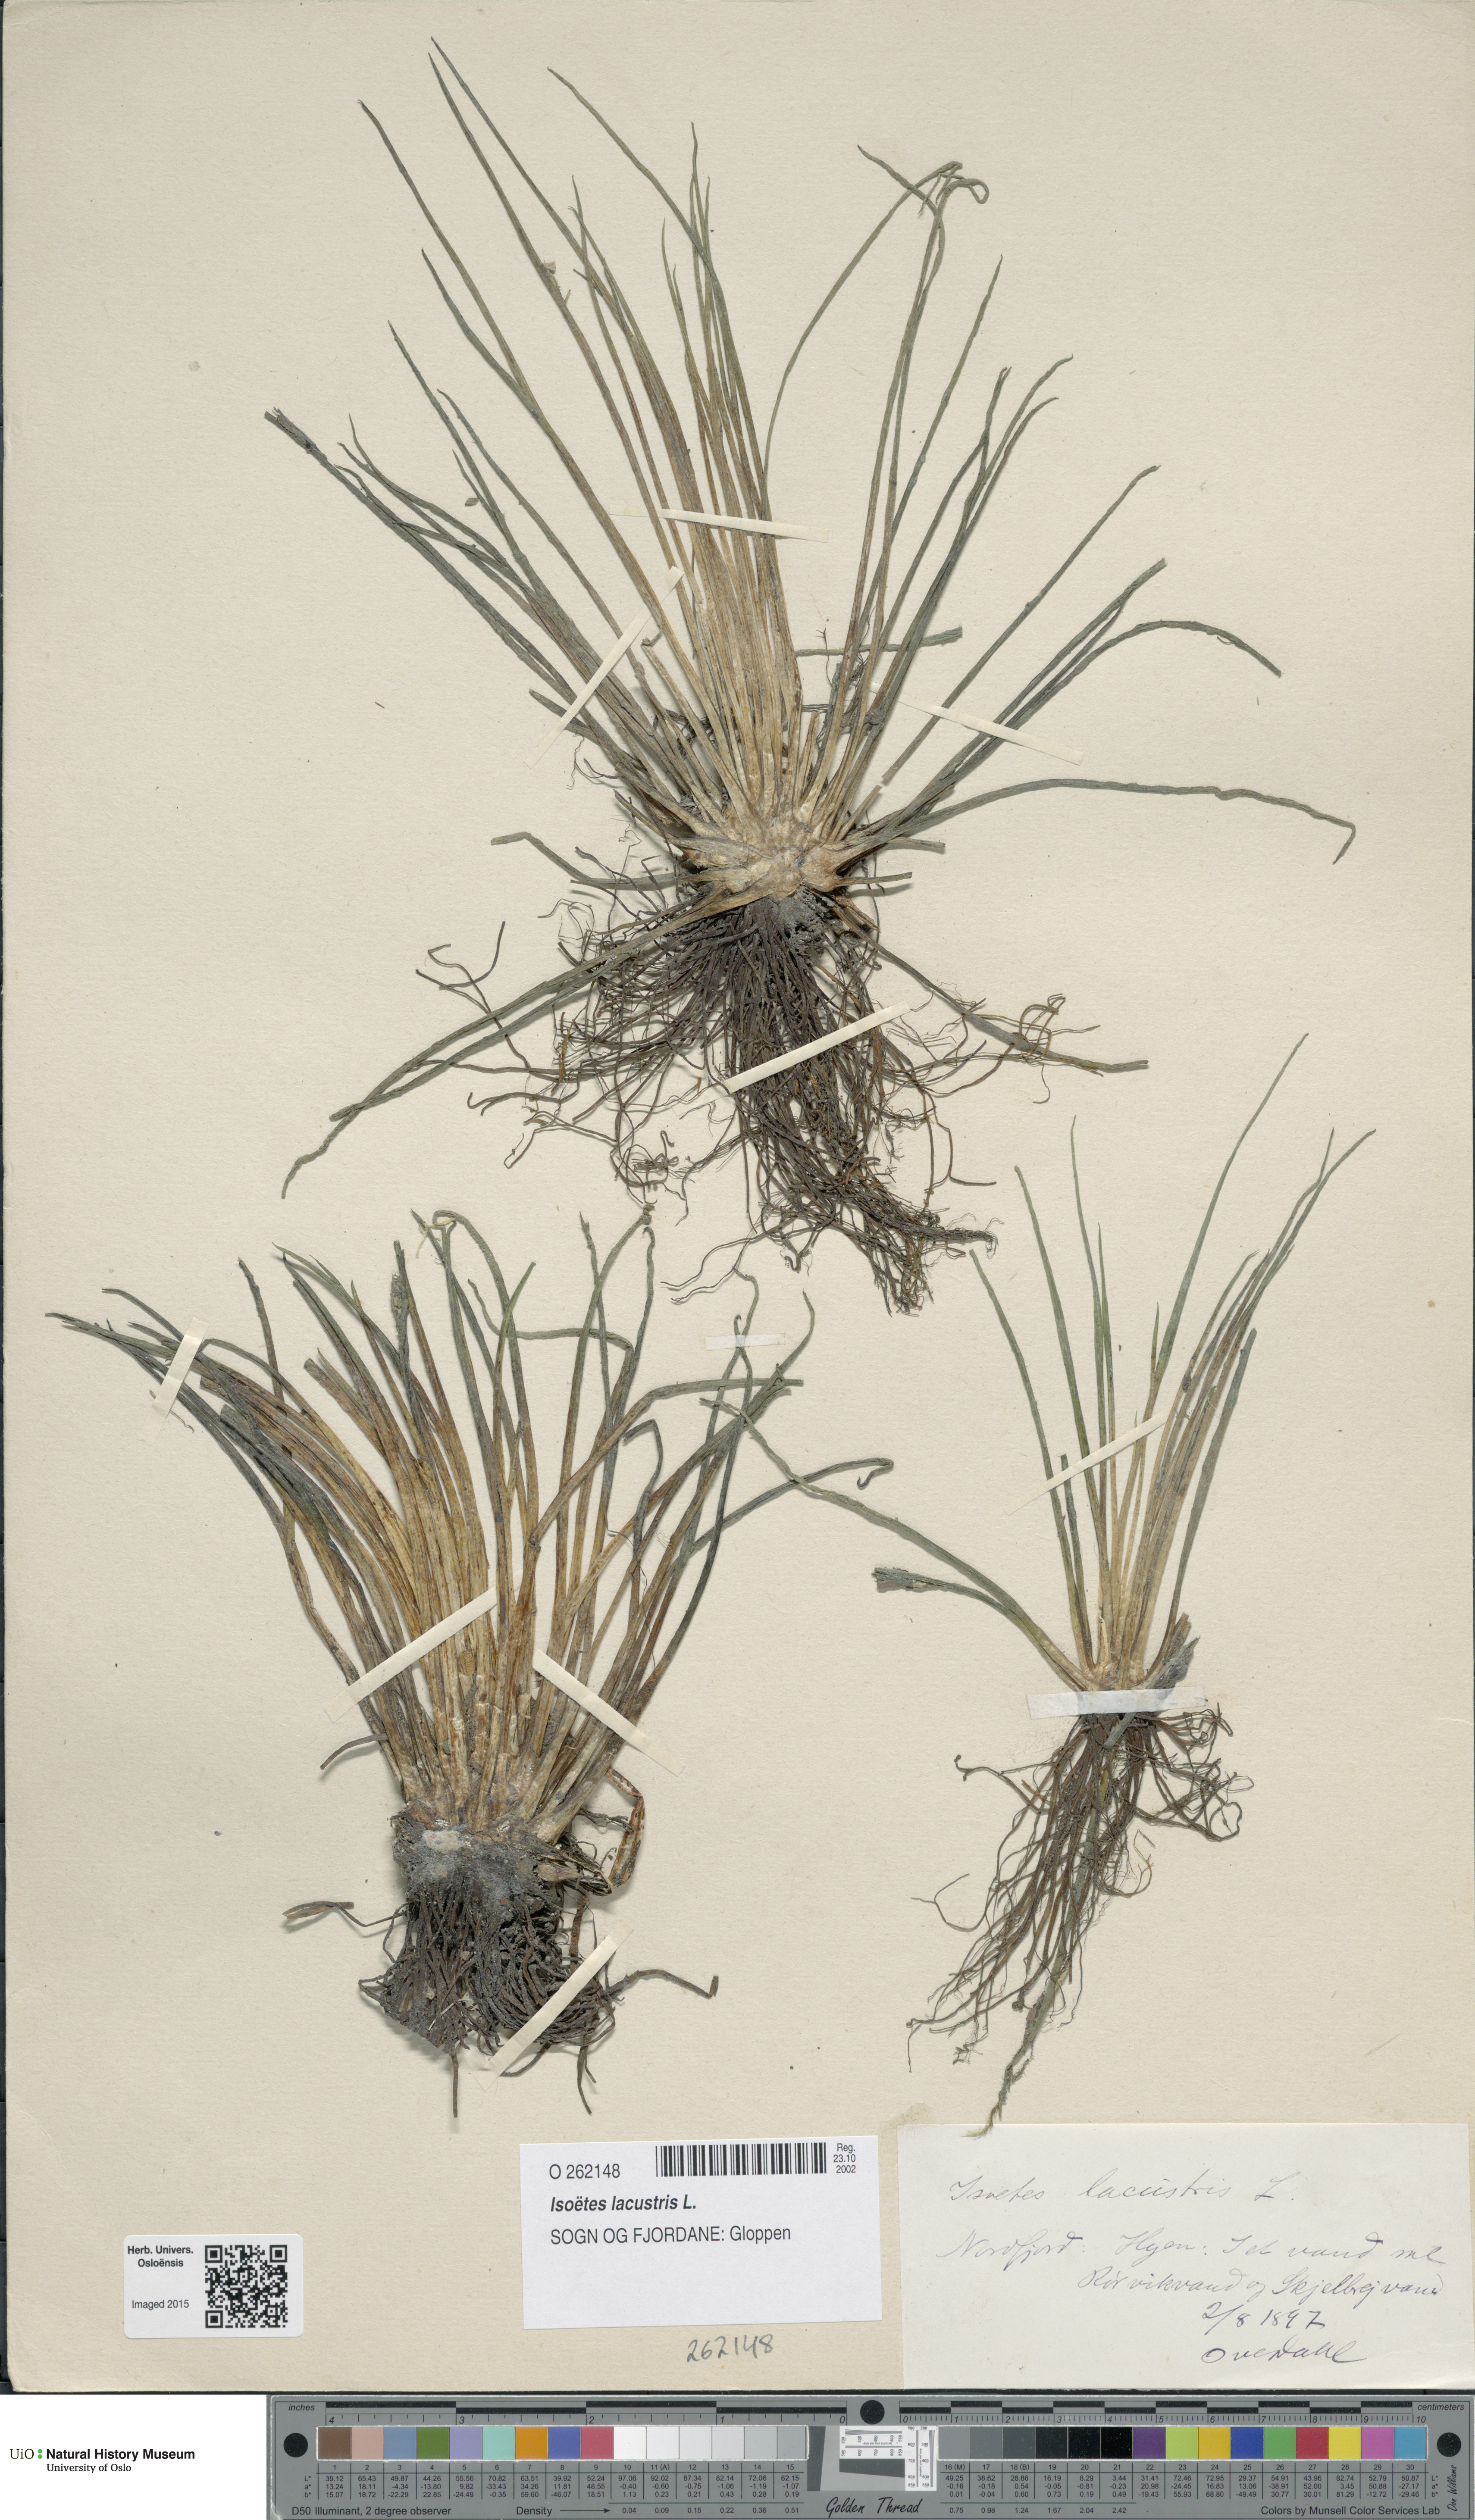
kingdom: Plantae
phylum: Tracheophyta
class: Lycopodiopsida
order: Isoetales
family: Isoetaceae
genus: Isoetes
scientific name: Isoetes lacustris
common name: Common quillwort
